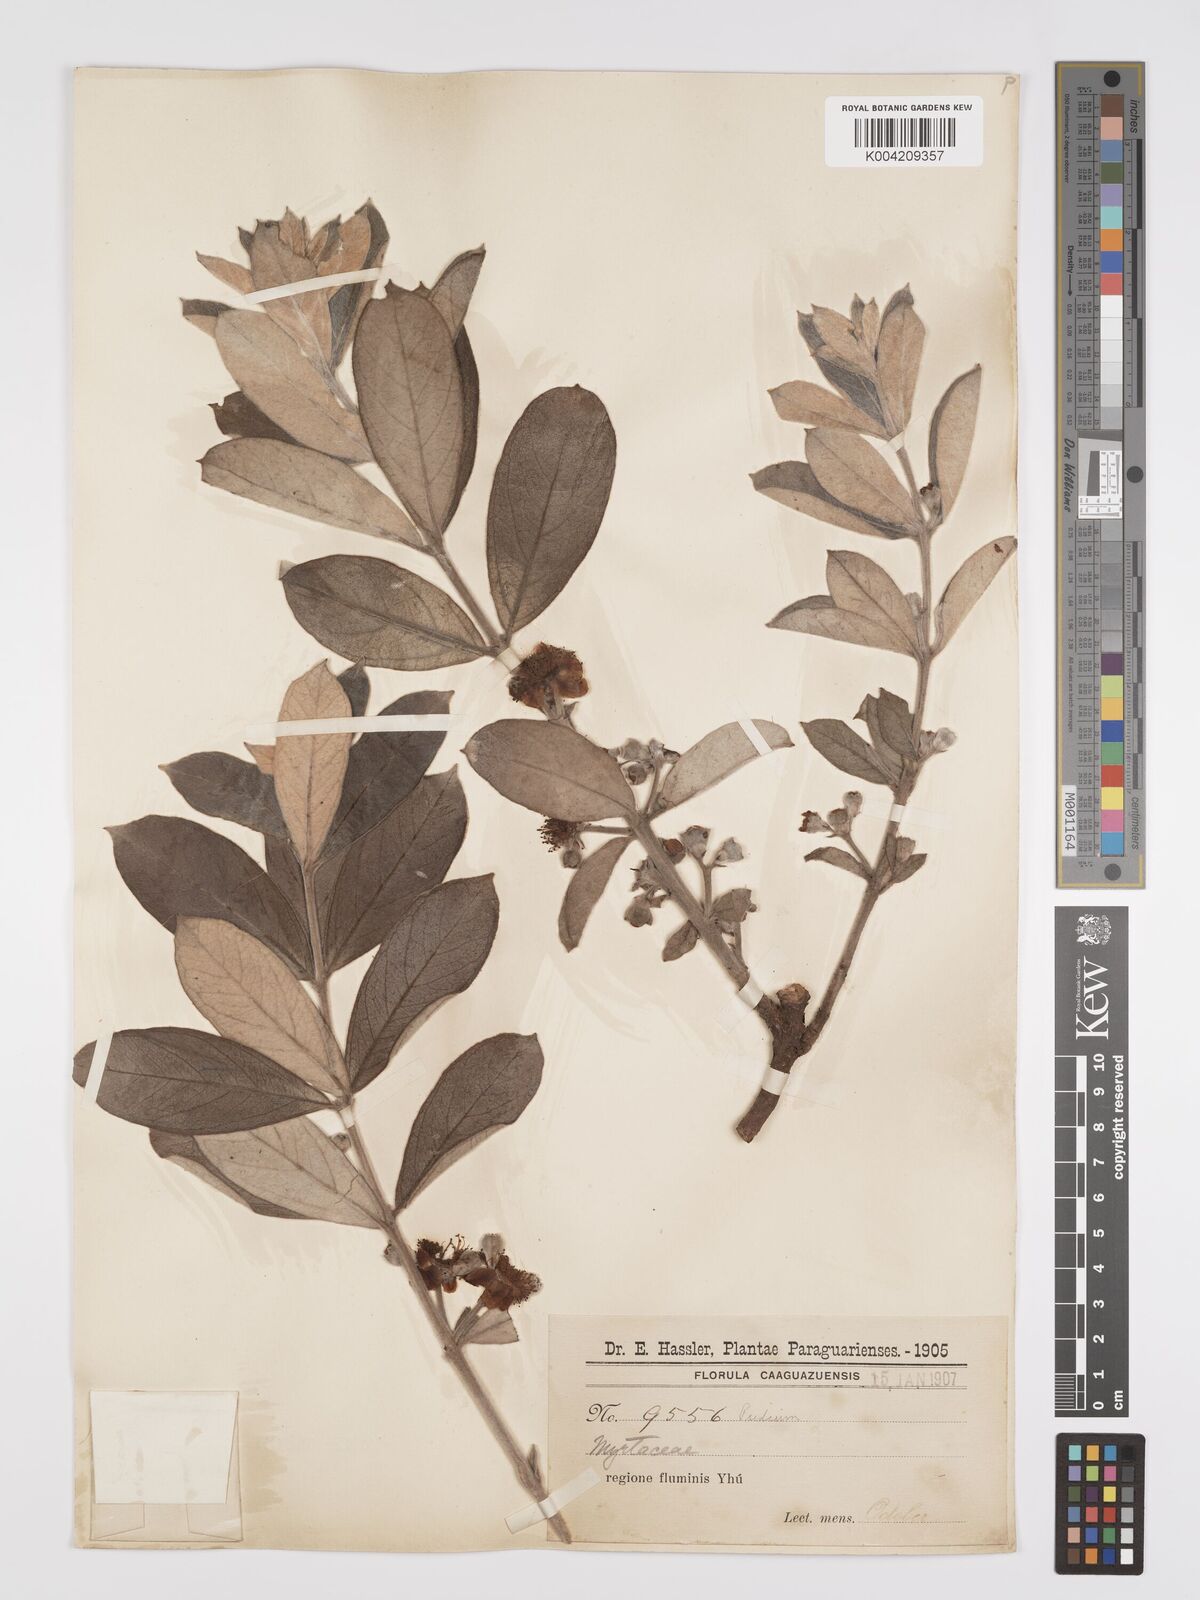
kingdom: Plantae
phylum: Tracheophyta
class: Magnoliopsida
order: Myrtales
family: Myrtaceae
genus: Psidium
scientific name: Psidium grandifolium
